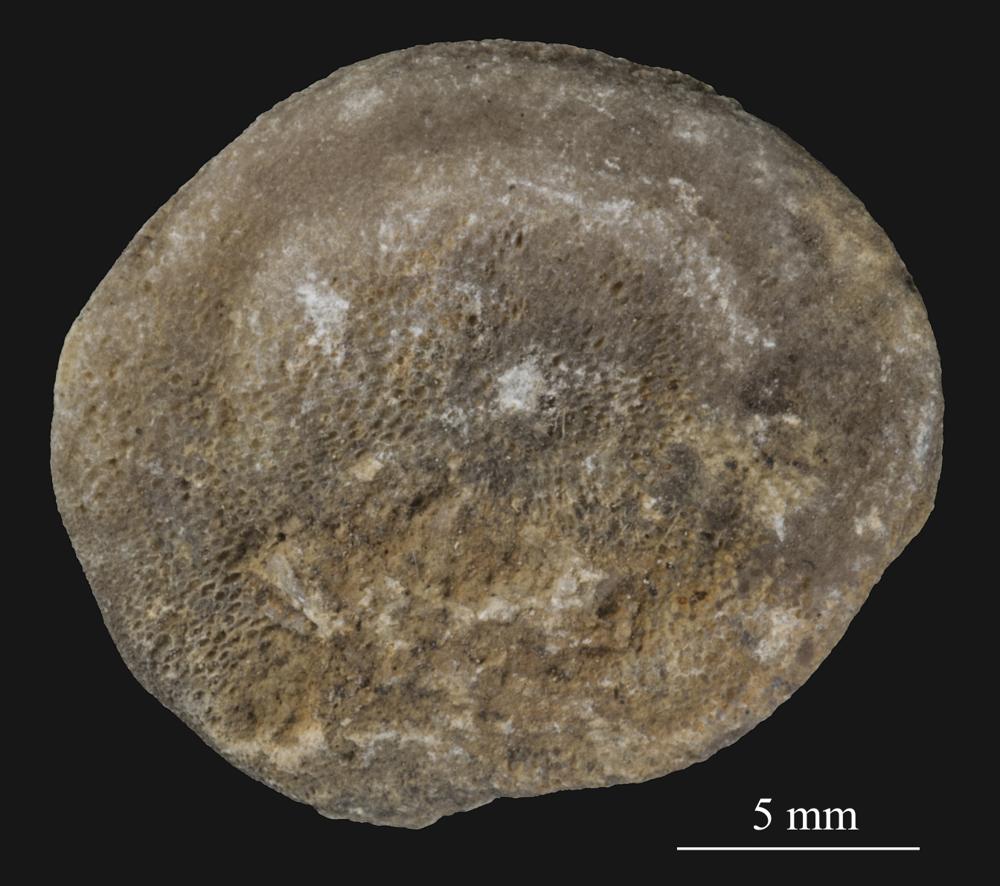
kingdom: Animalia
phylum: Bryozoa
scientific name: Bryozoa
